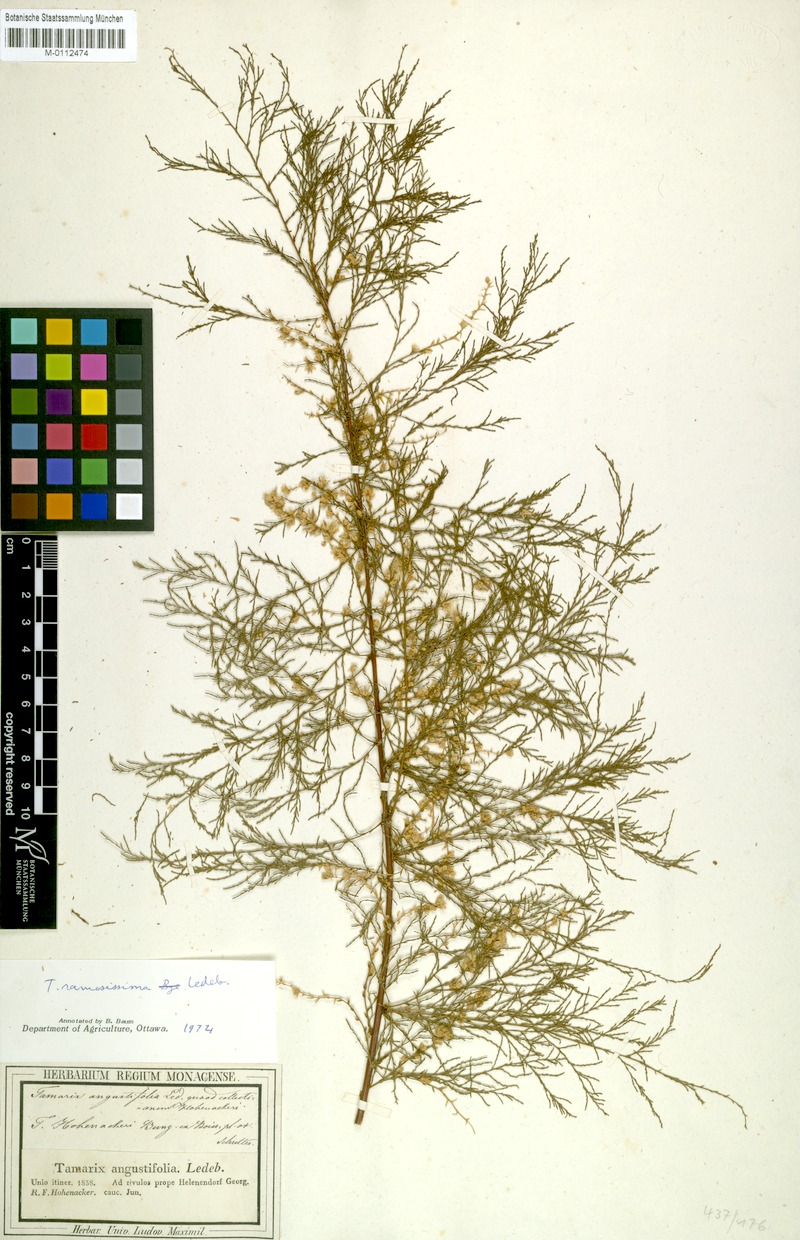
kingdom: Plantae
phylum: Tracheophyta
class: Magnoliopsida
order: Caryophyllales
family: Tamaricaceae
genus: Tamarix
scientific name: Tamarix hohenackeri
